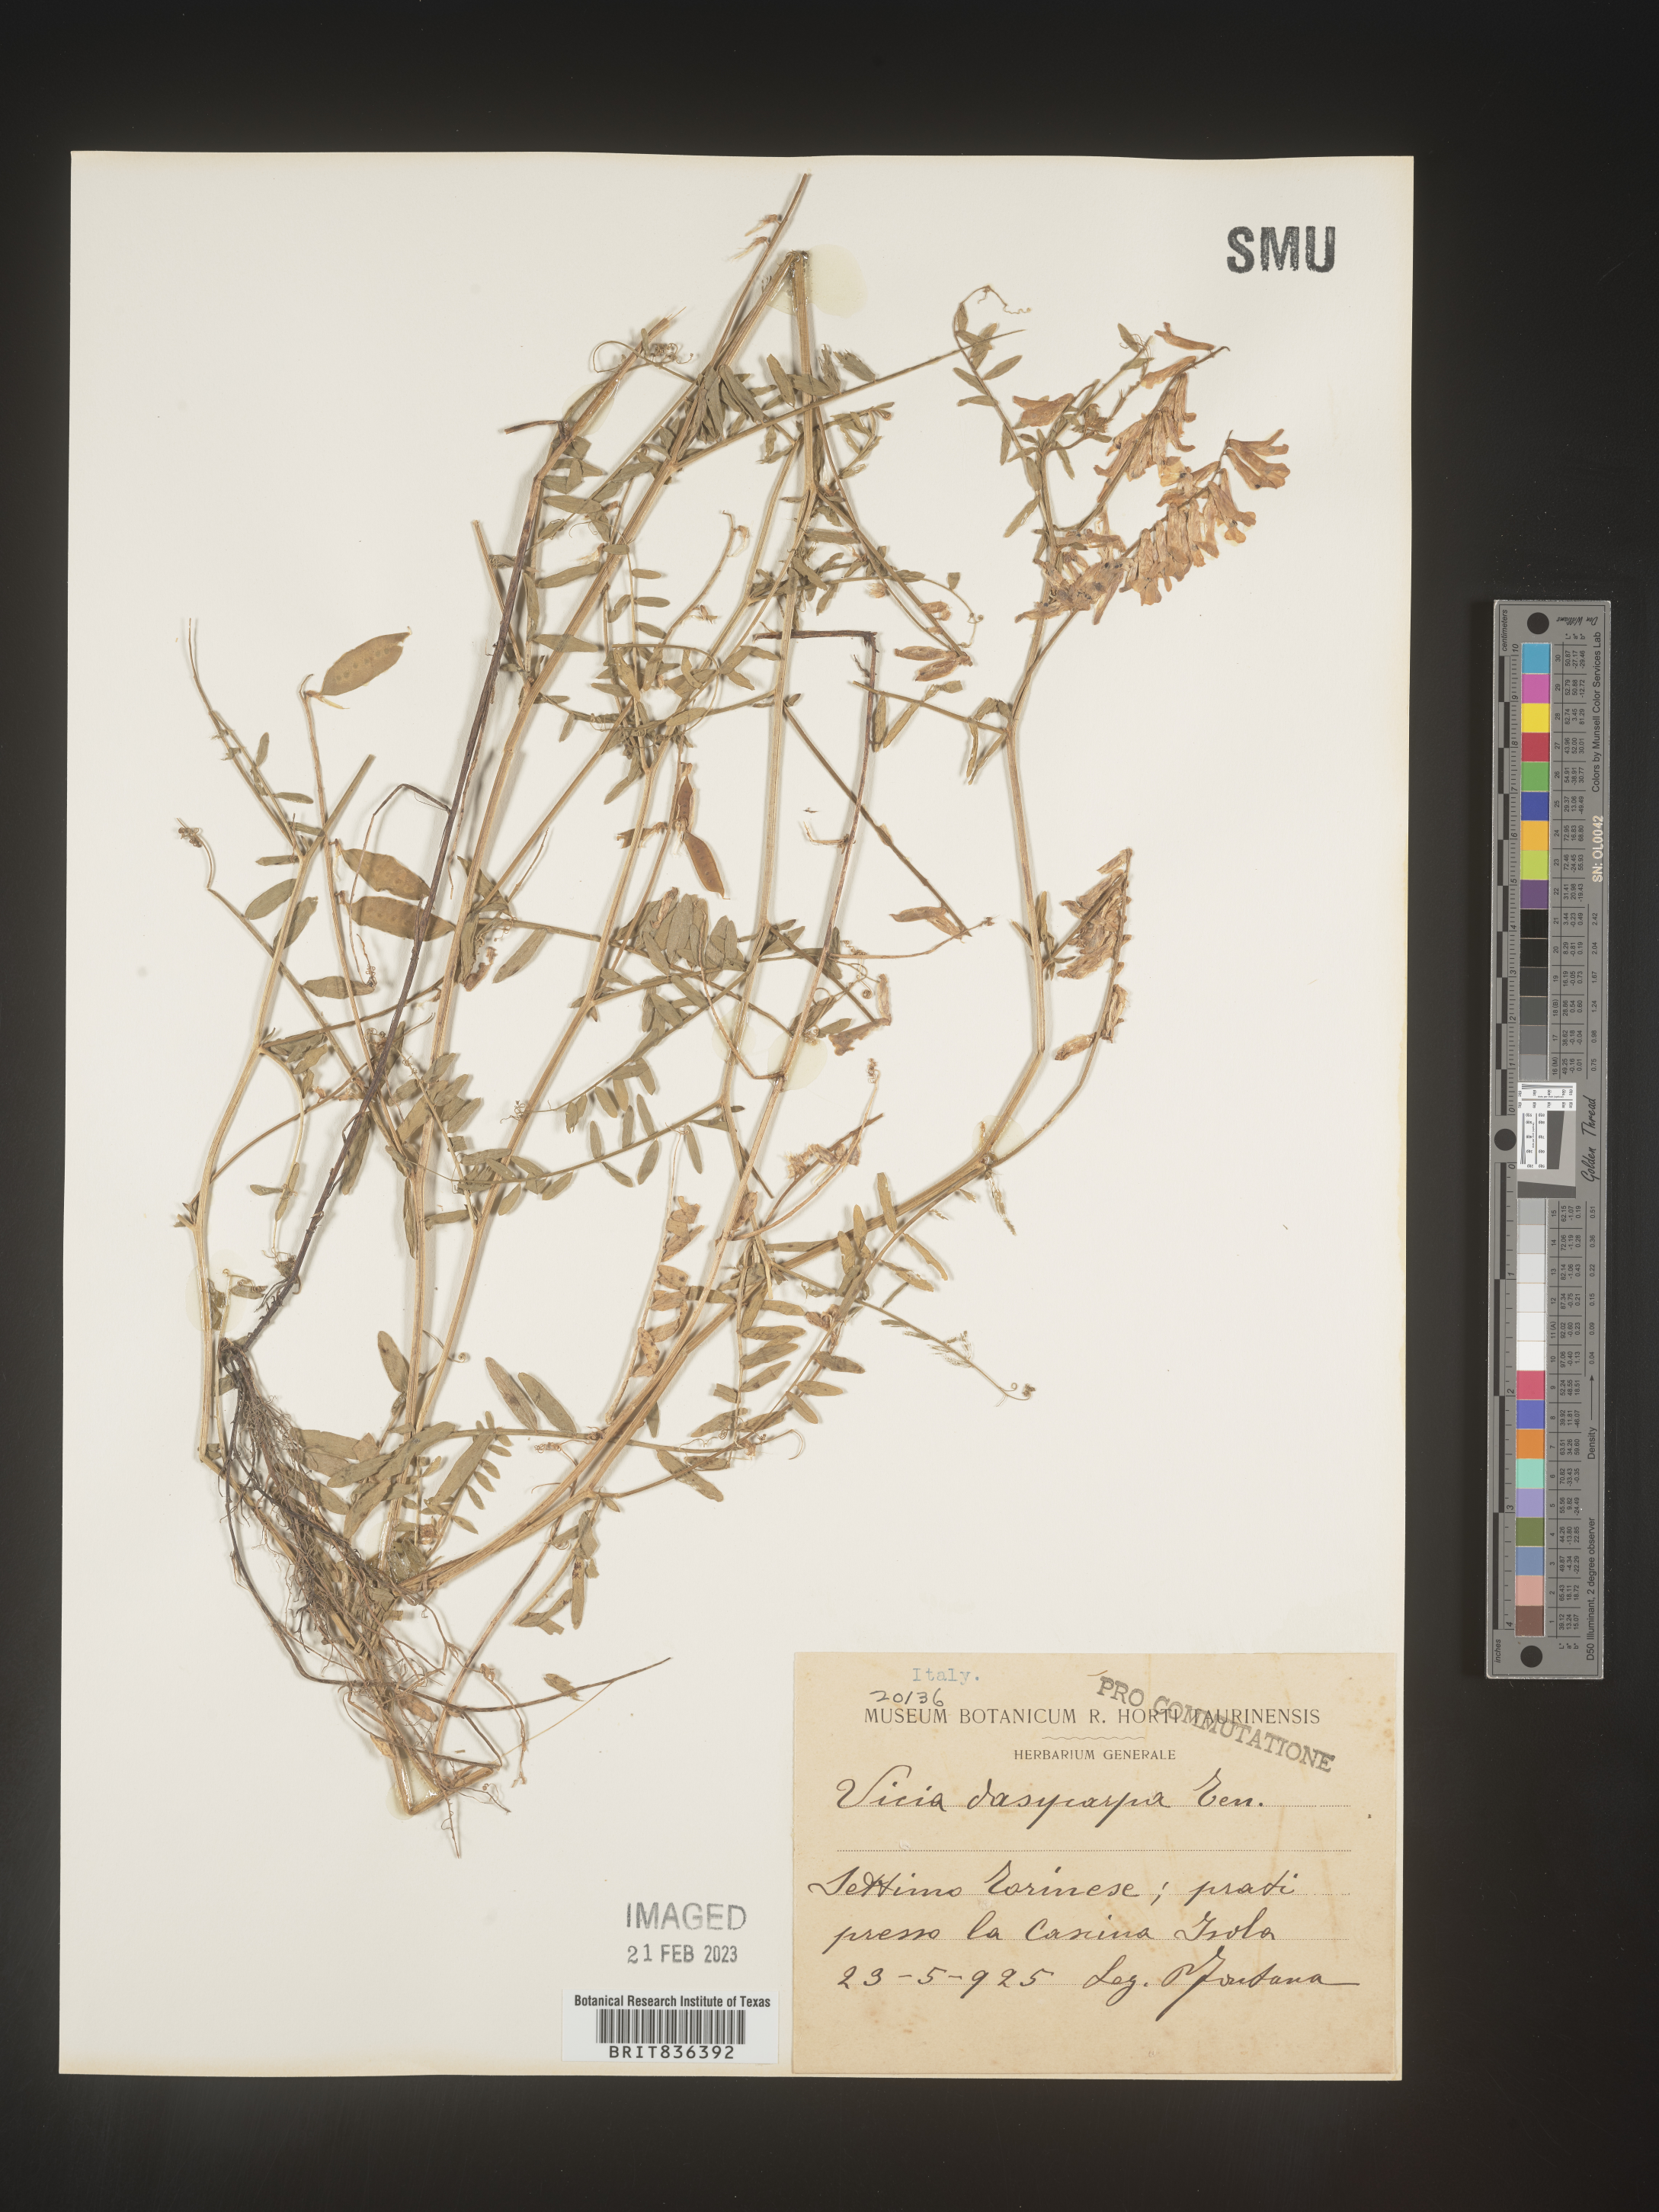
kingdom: Plantae
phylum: Tracheophyta
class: Magnoliopsida
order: Fabales
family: Fabaceae
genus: Vicia
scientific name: Vicia
